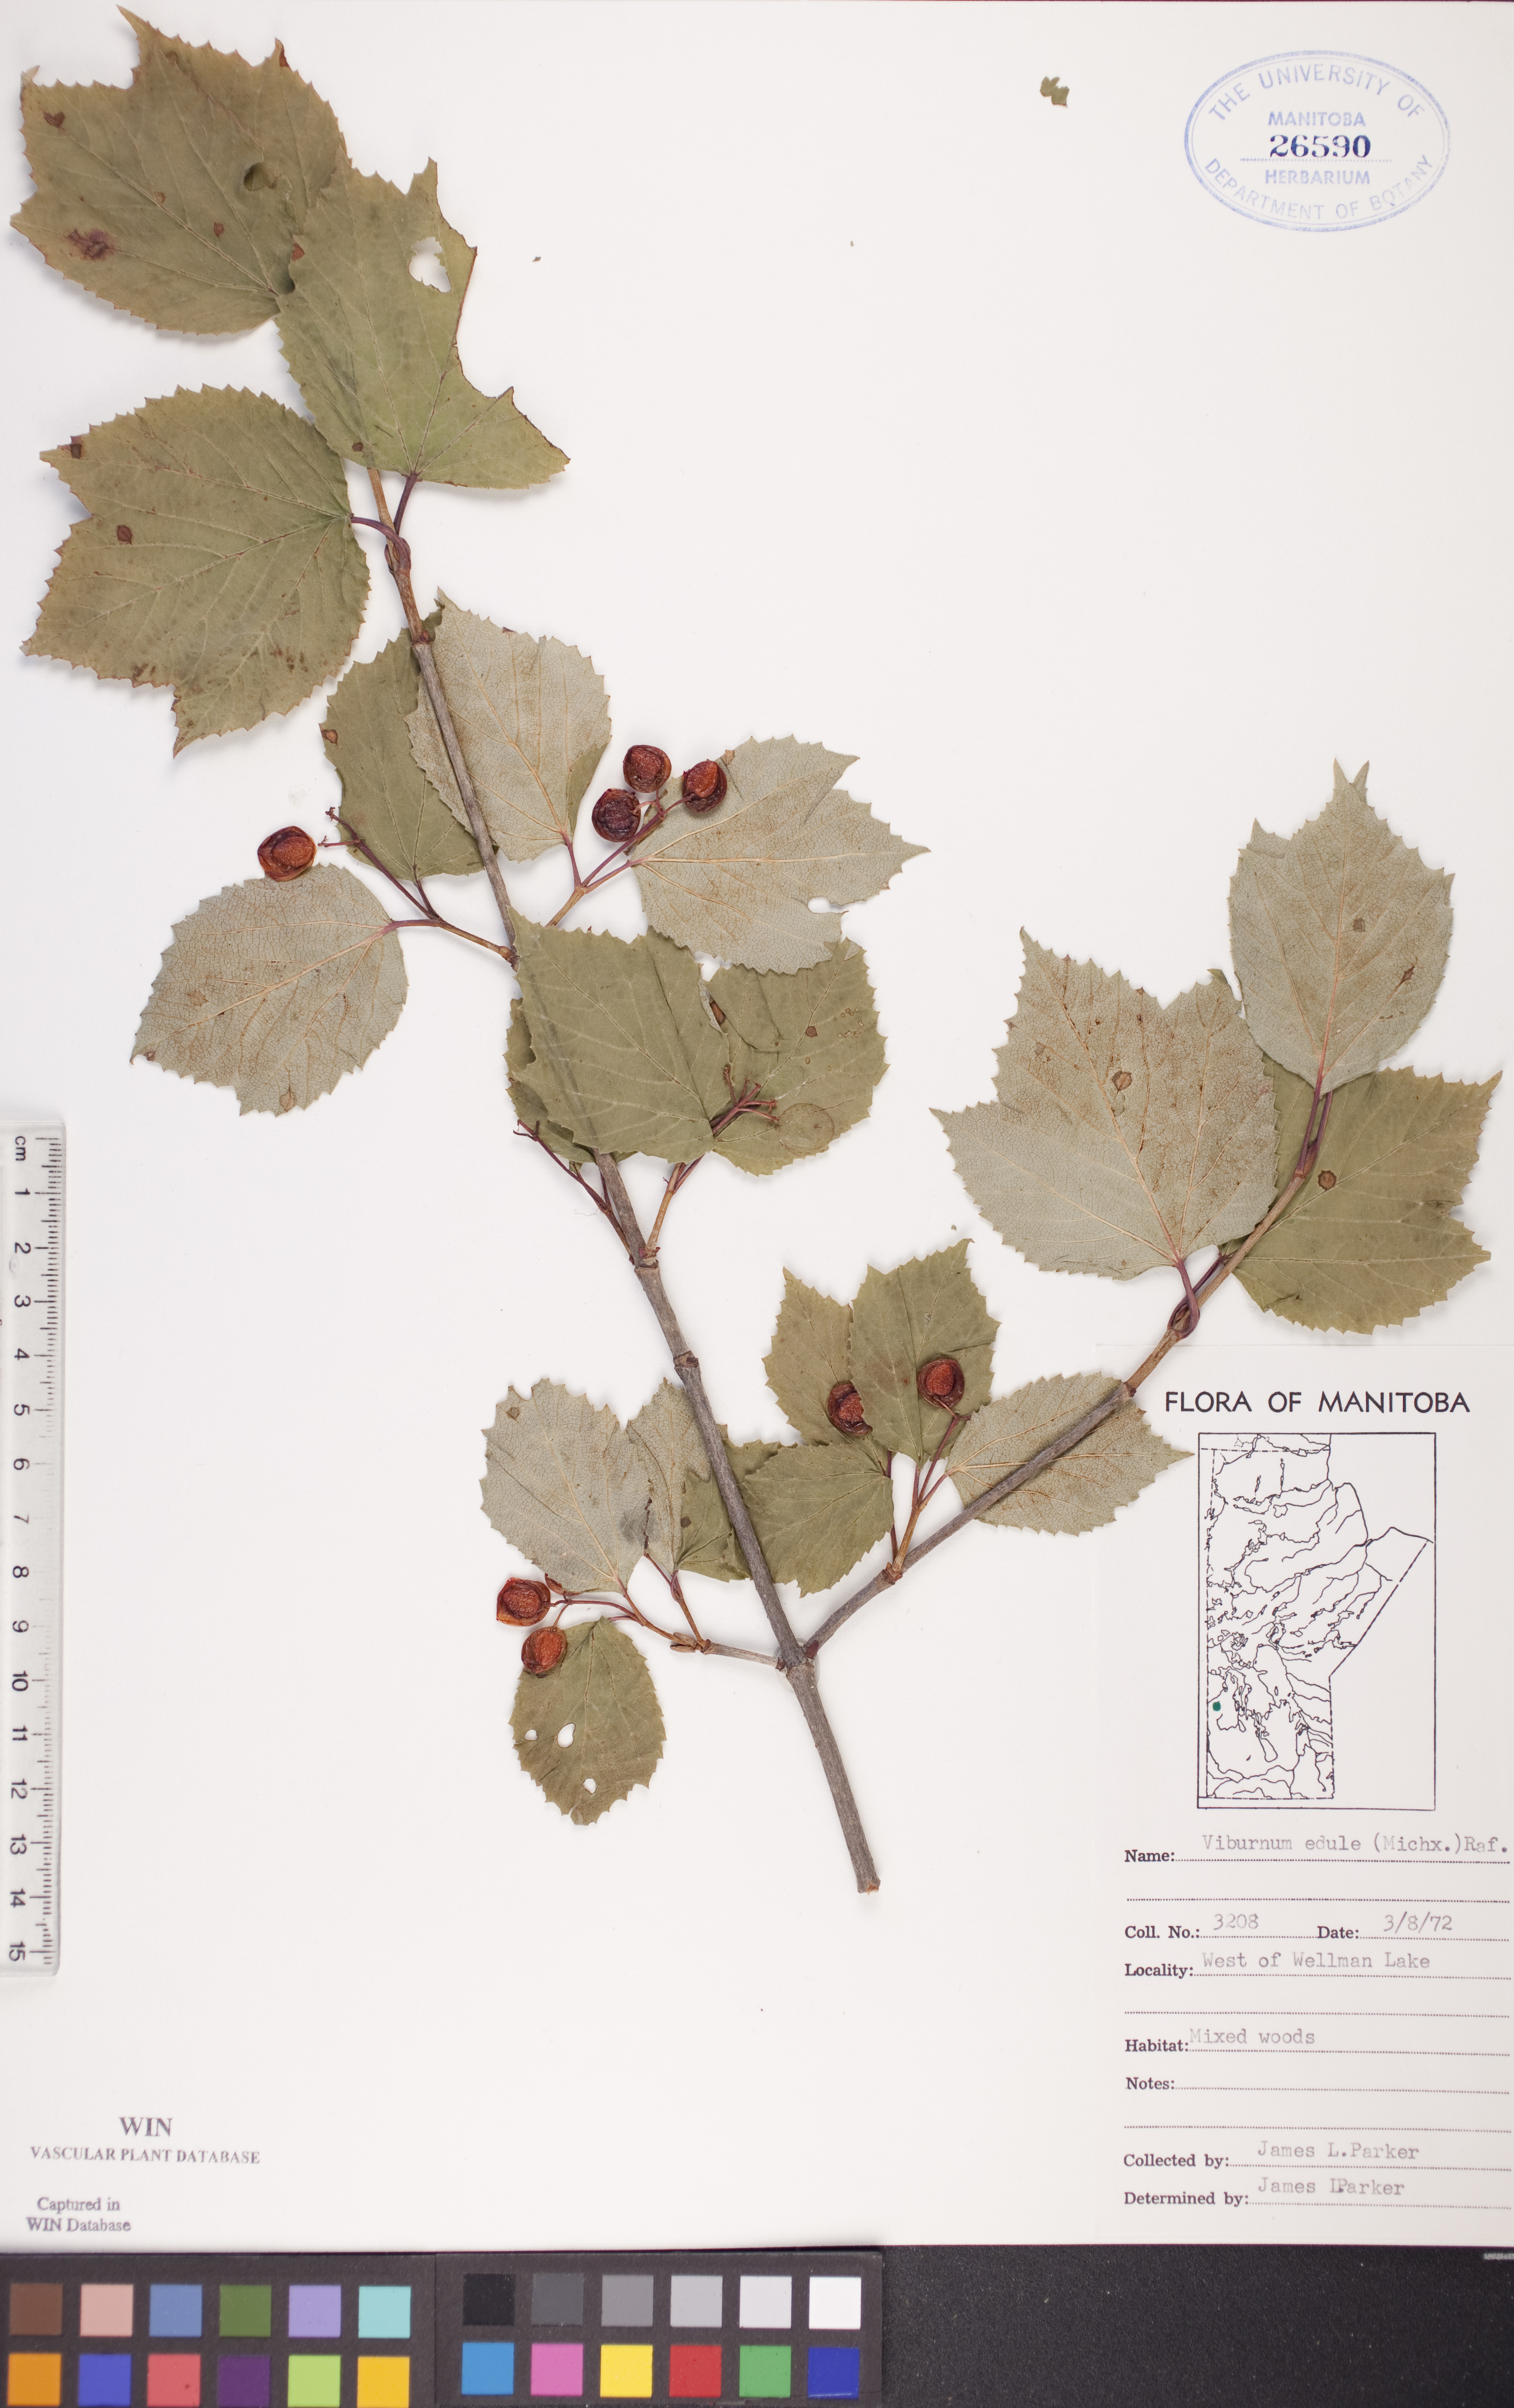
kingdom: Plantae
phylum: Tracheophyta
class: Magnoliopsida
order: Dipsacales
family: Viburnaceae
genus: Viburnum
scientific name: Viburnum edule
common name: Mooseberry
